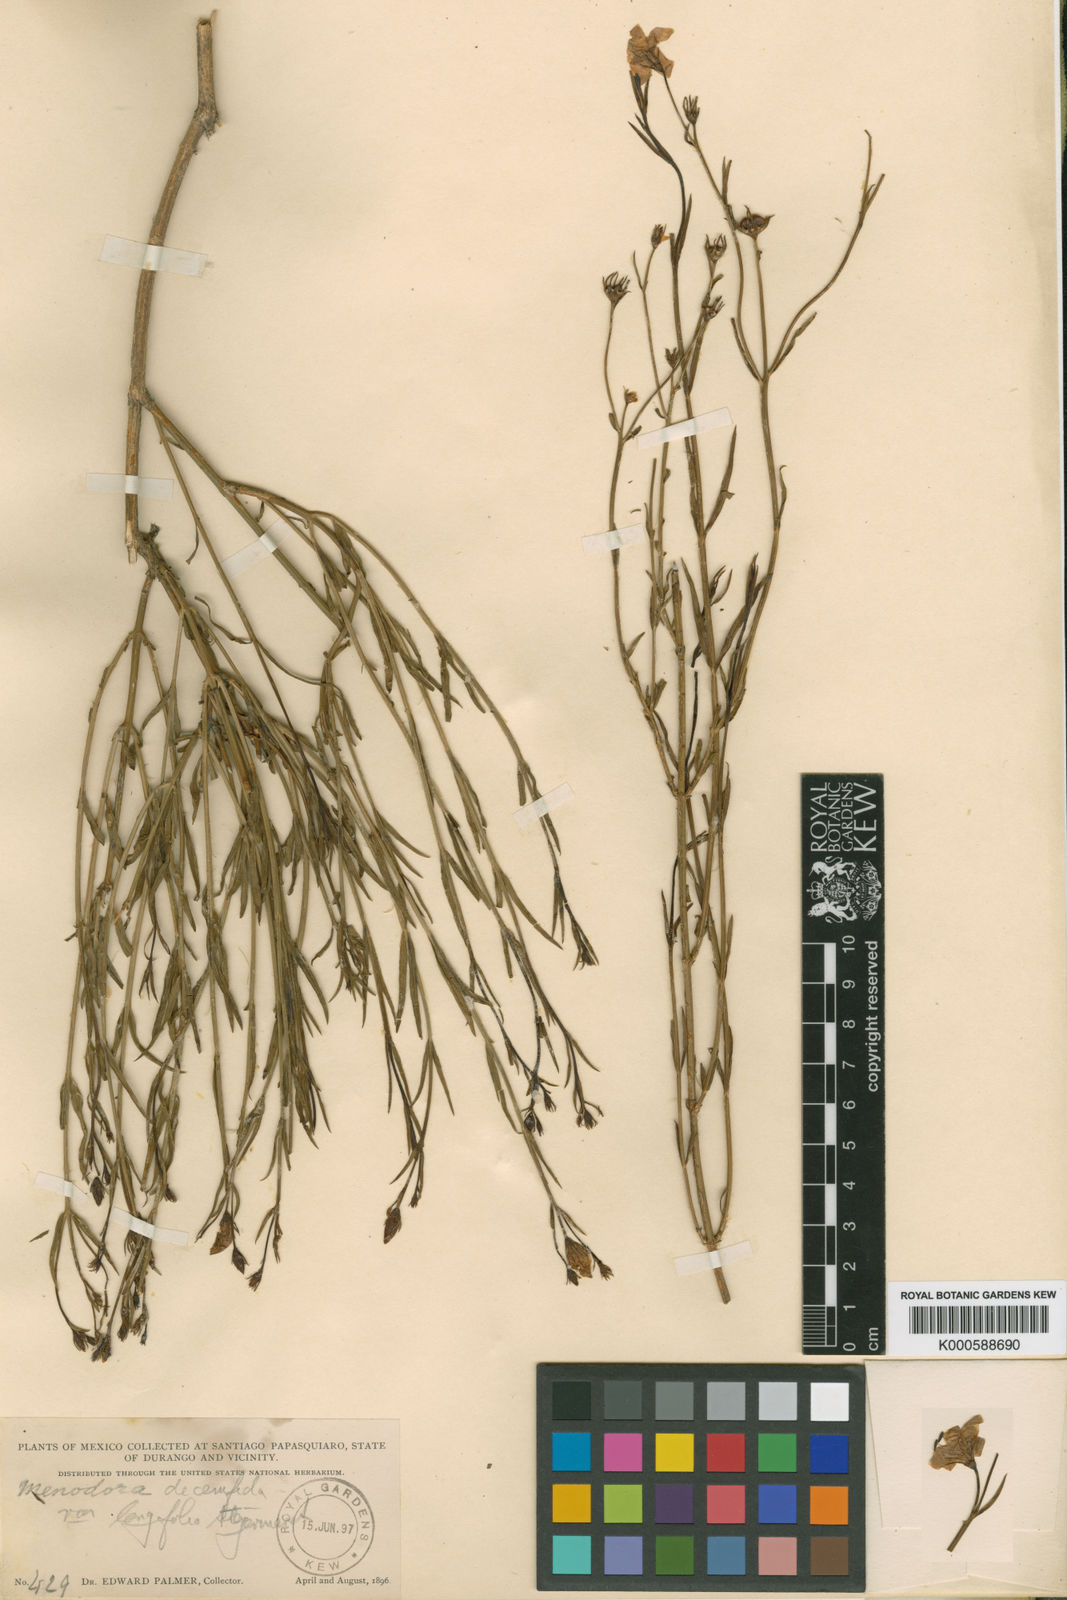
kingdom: Plantae
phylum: Tracheophyta
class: Magnoliopsida
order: Lamiales
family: Oleaceae
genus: Menodora
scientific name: Menodora scabra
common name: Rough menodora
